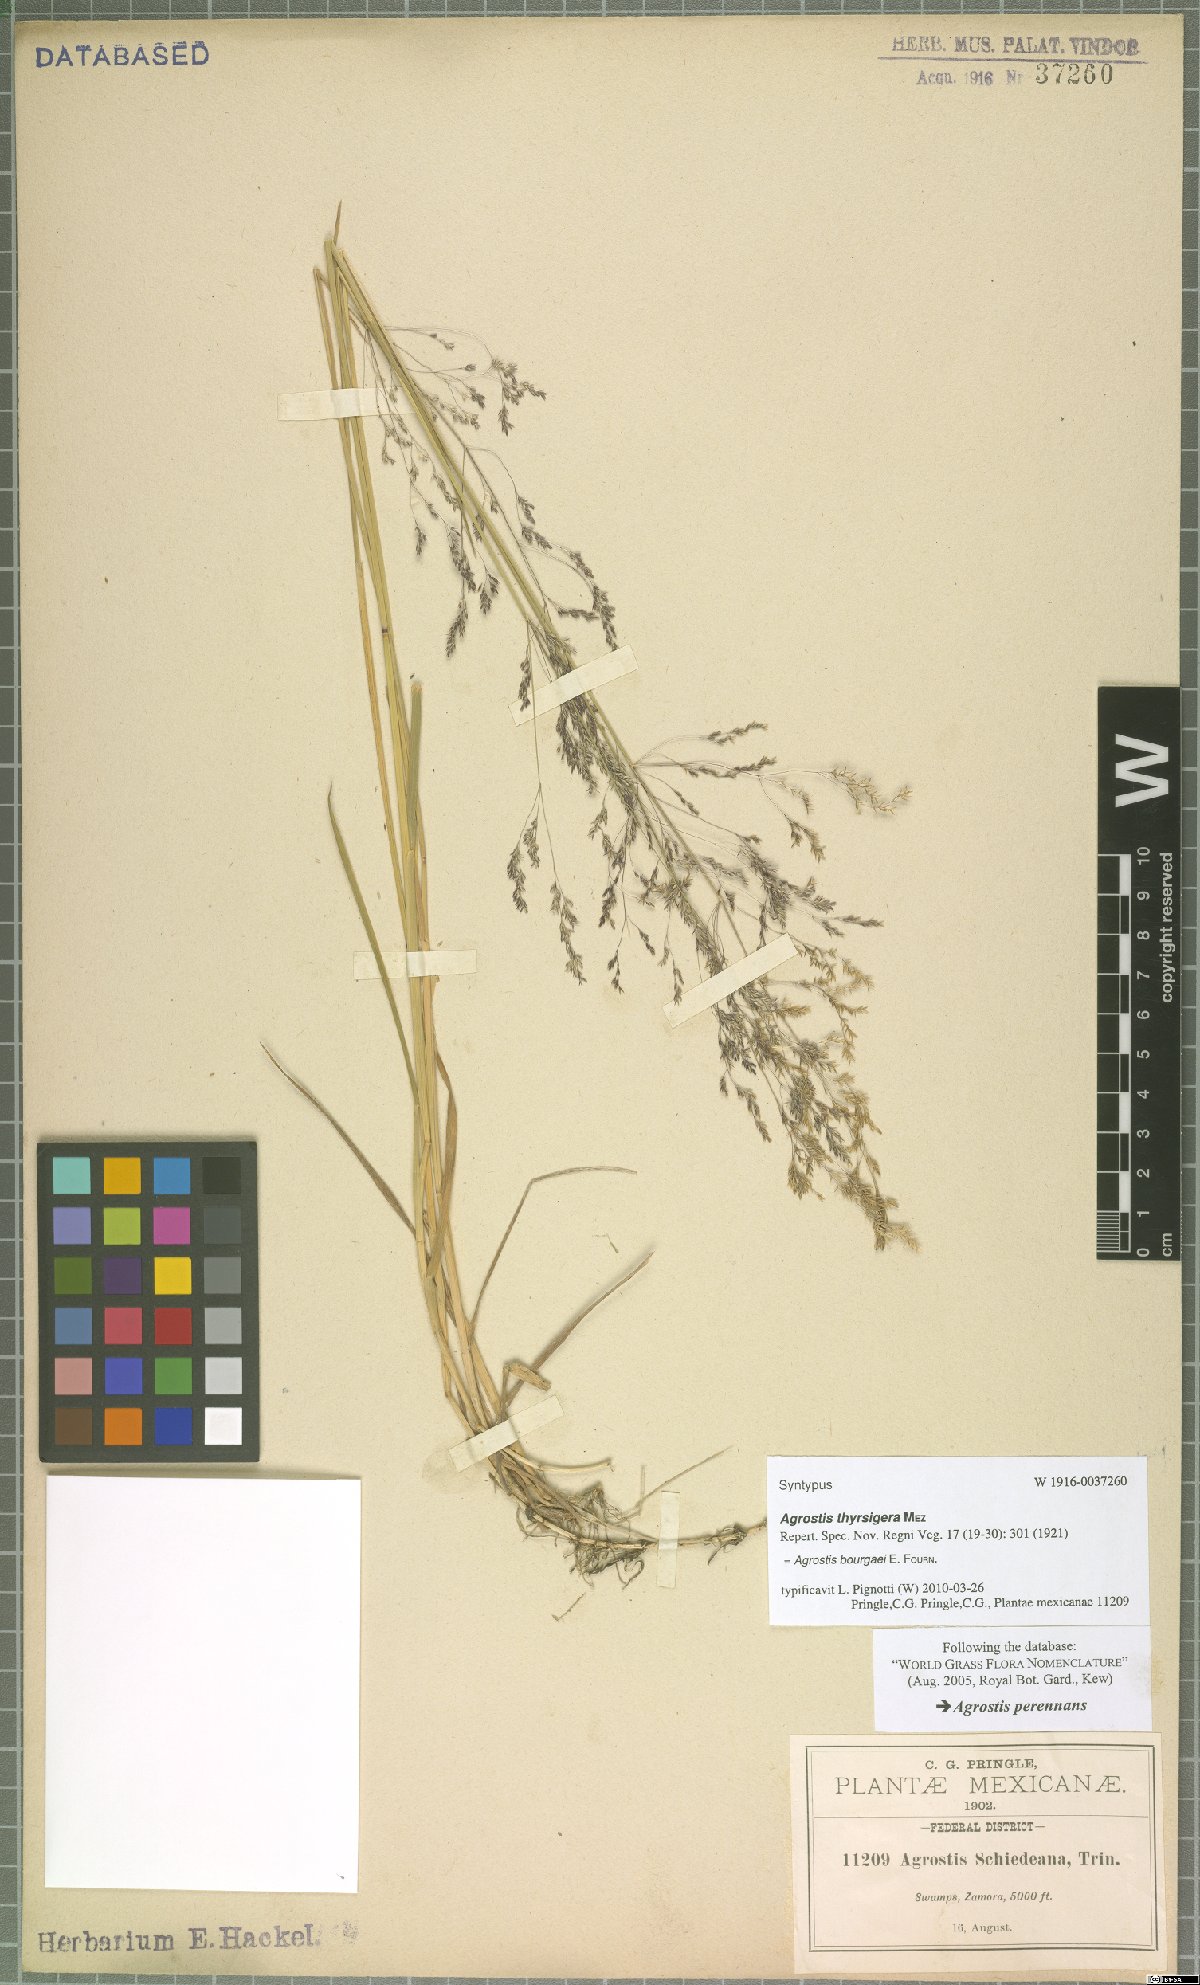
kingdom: Plantae
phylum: Tracheophyta
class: Liliopsida
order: Poales
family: Poaceae
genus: Agrostis
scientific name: Agrostis bourgaei
